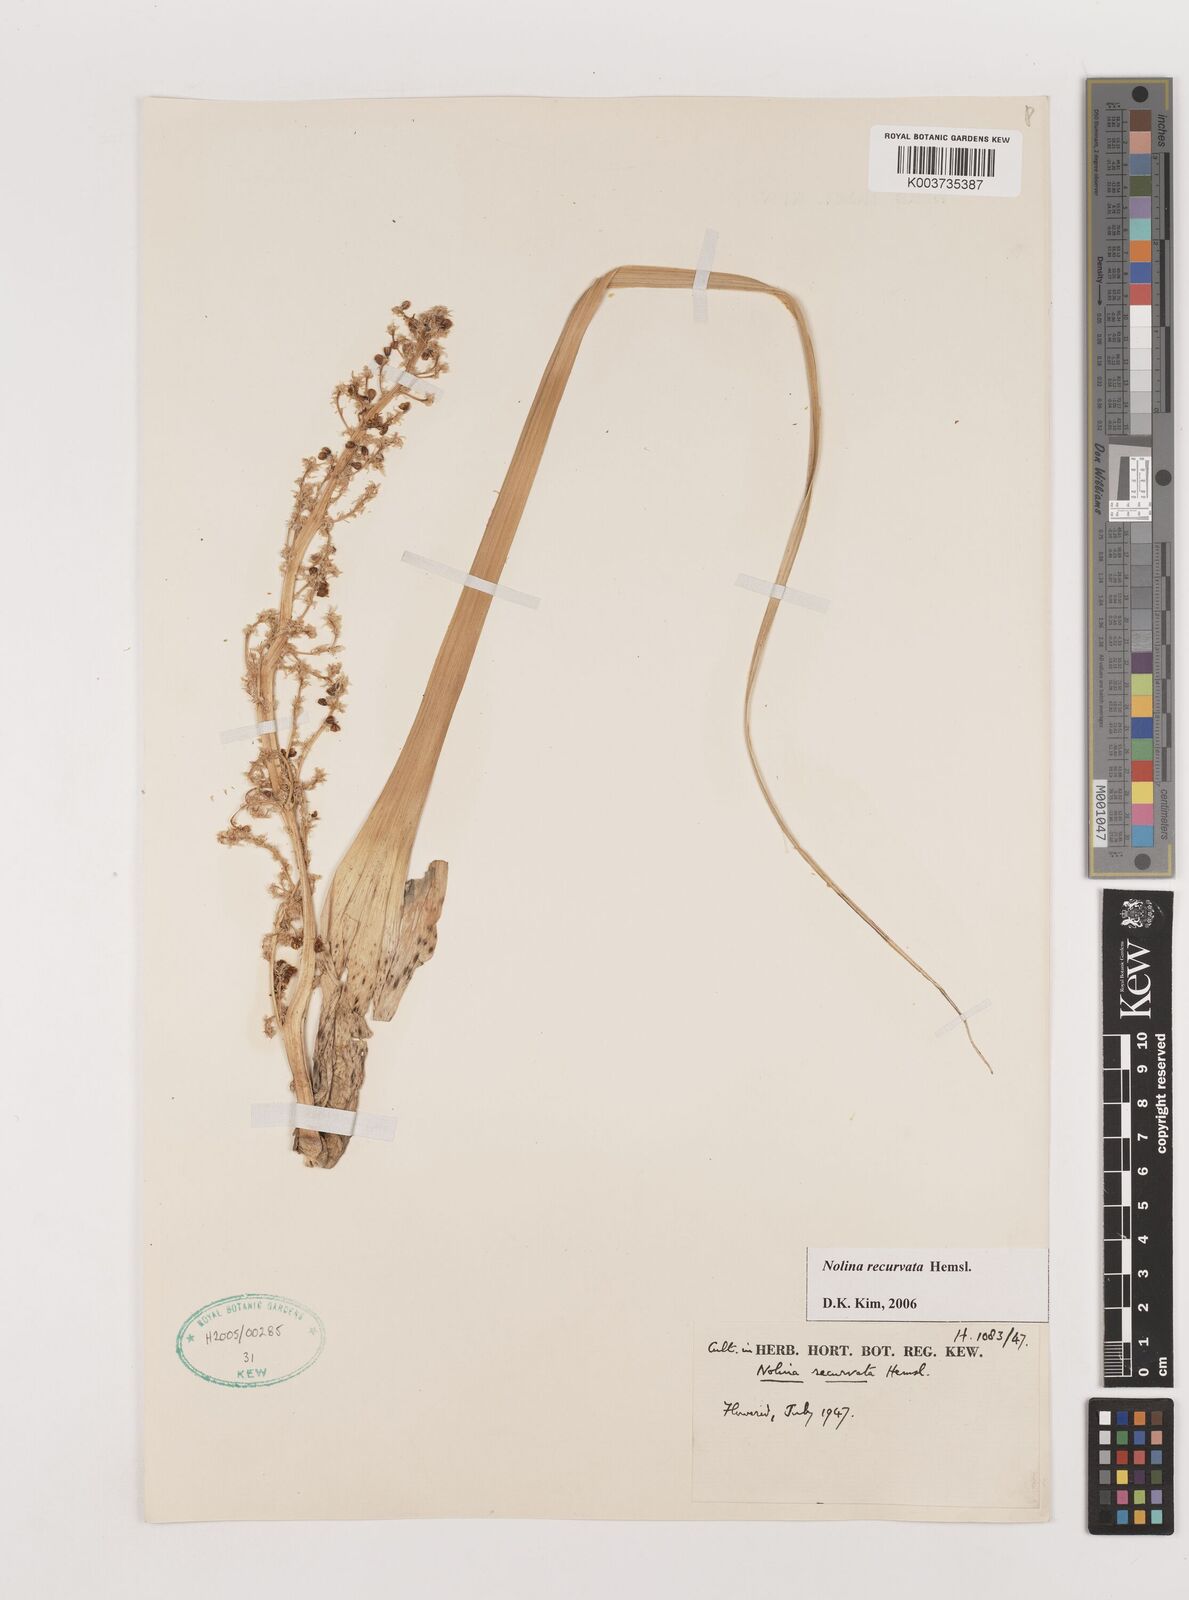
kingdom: Plantae
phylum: Tracheophyta
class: Liliopsida
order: Asparagales
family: Asparagaceae
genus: Beaucarnea
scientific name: Beaucarnea recurvata
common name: Stripy  ponytail
